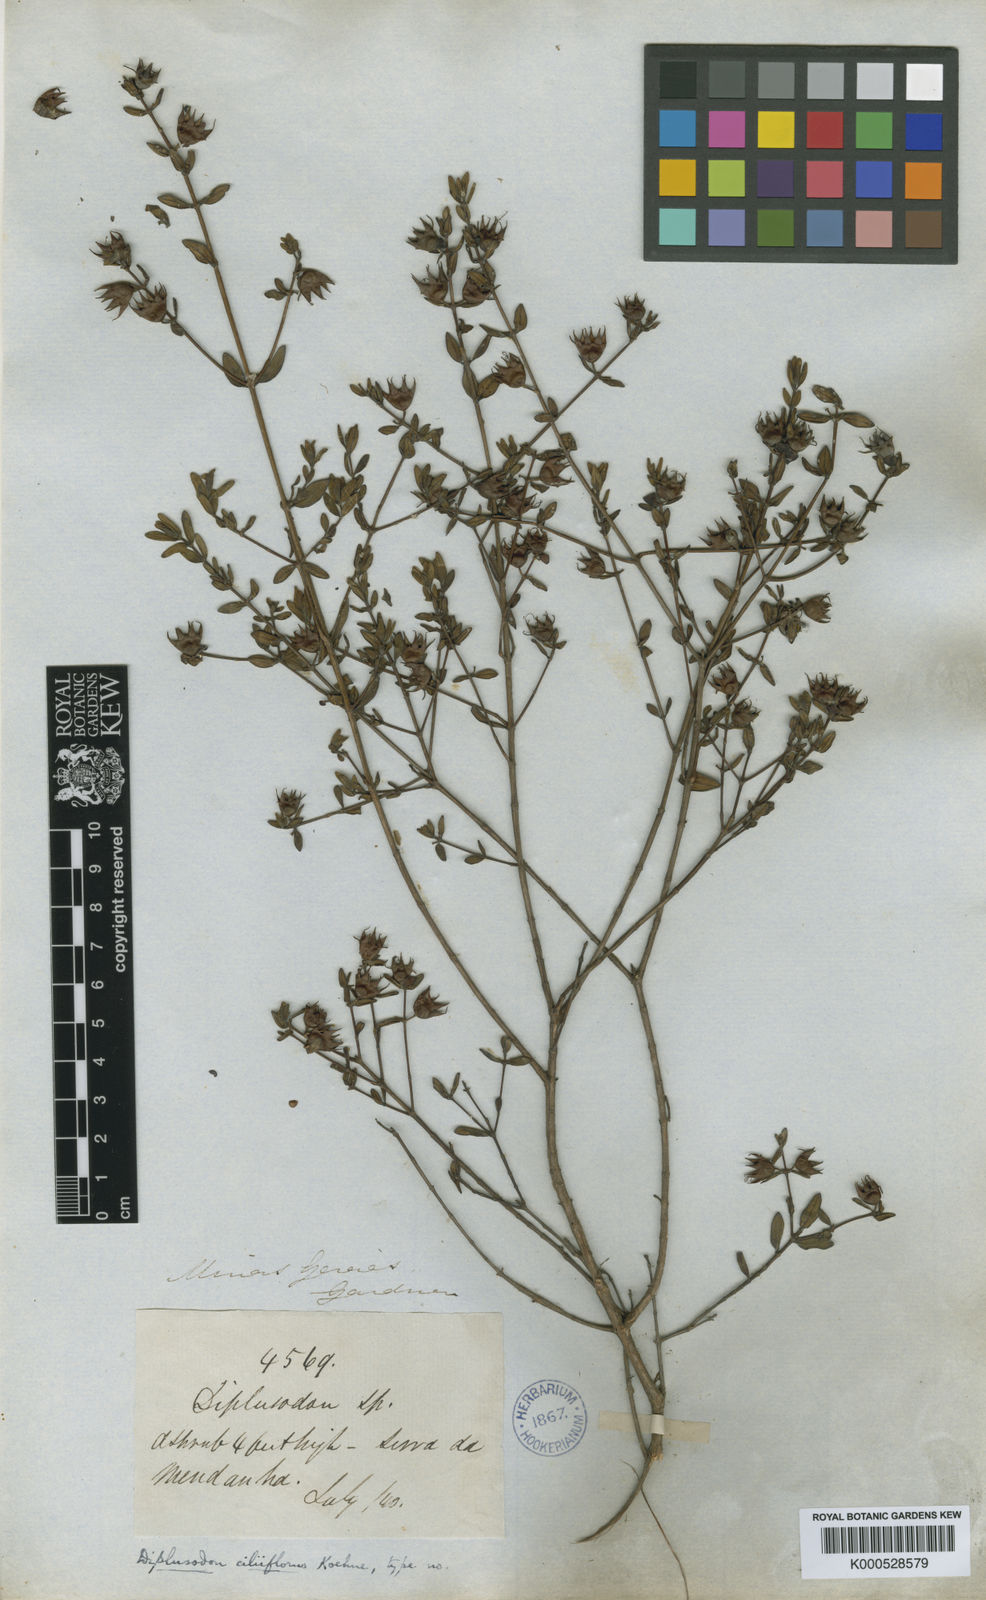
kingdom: Plantae
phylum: Tracheophyta
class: Magnoliopsida
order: Myrtales
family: Lythraceae
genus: Diplusodon
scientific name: Diplusodon ciliiflorus
